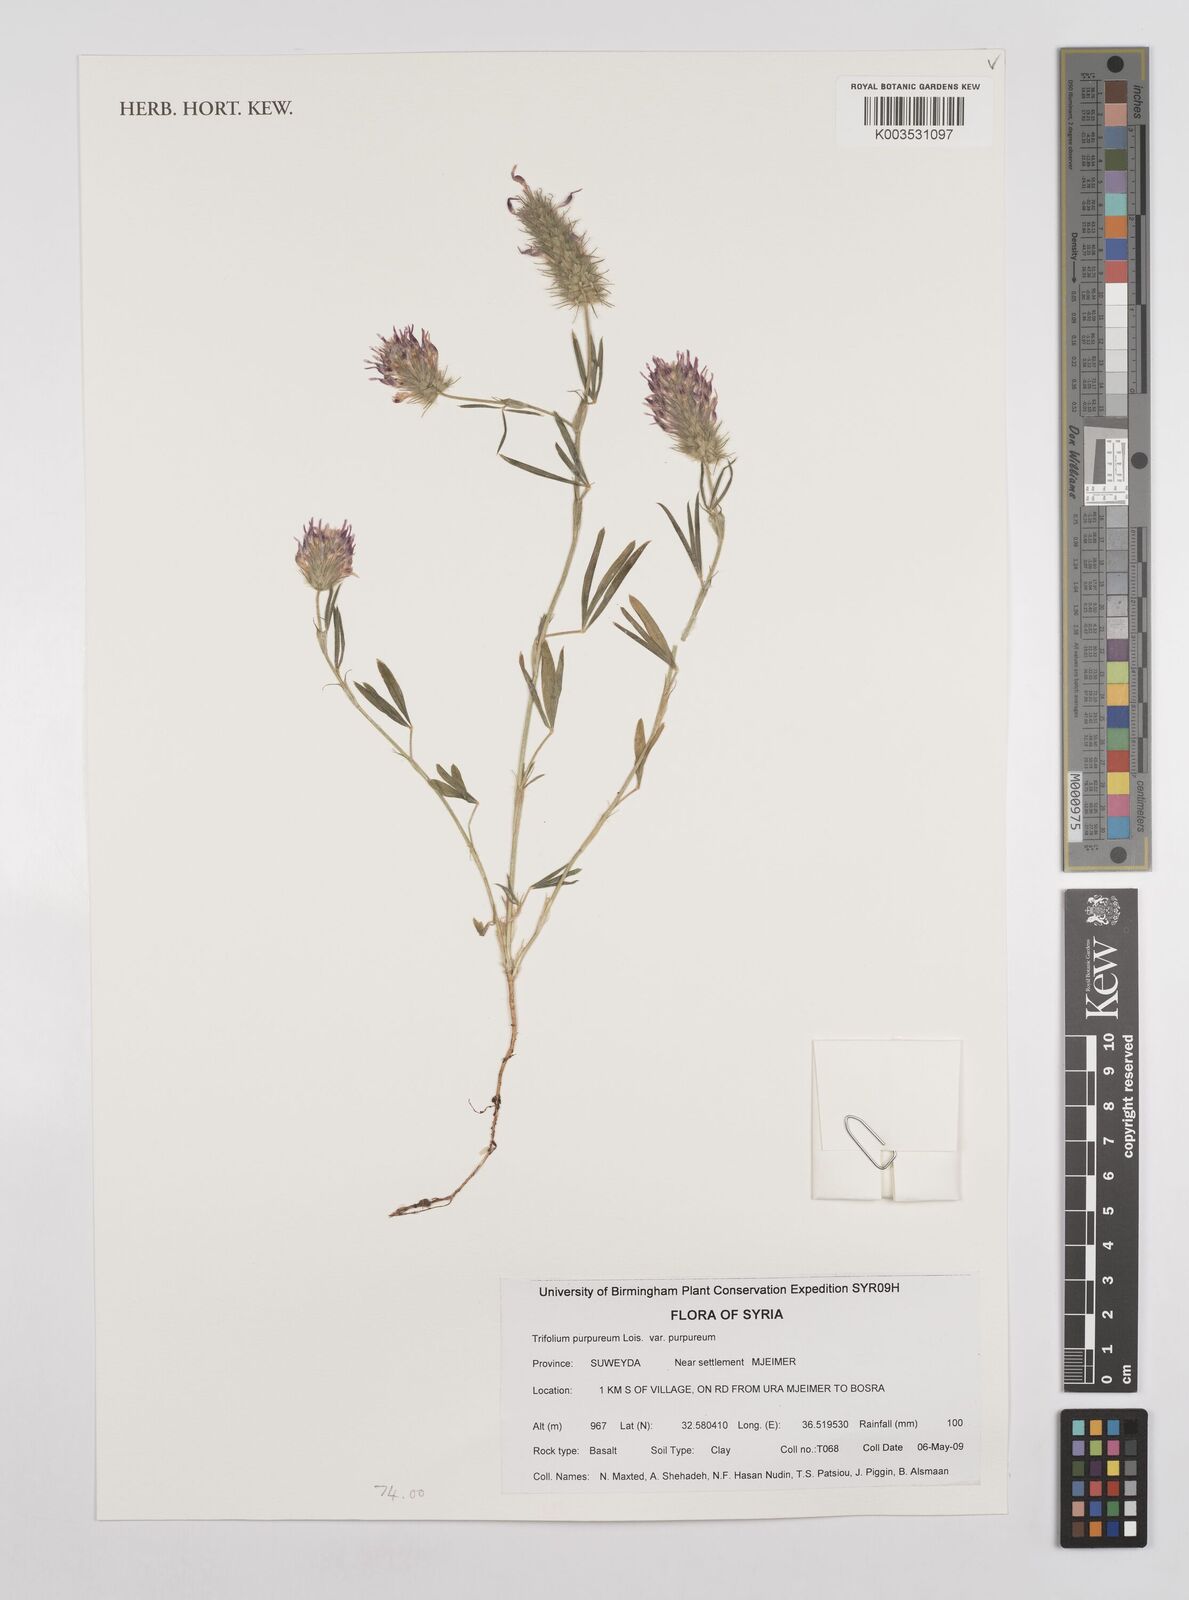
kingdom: Plantae
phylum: Tracheophyta
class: Magnoliopsida
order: Fabales
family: Fabaceae
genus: Trifolium
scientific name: Trifolium purpureum
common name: Purple clover
